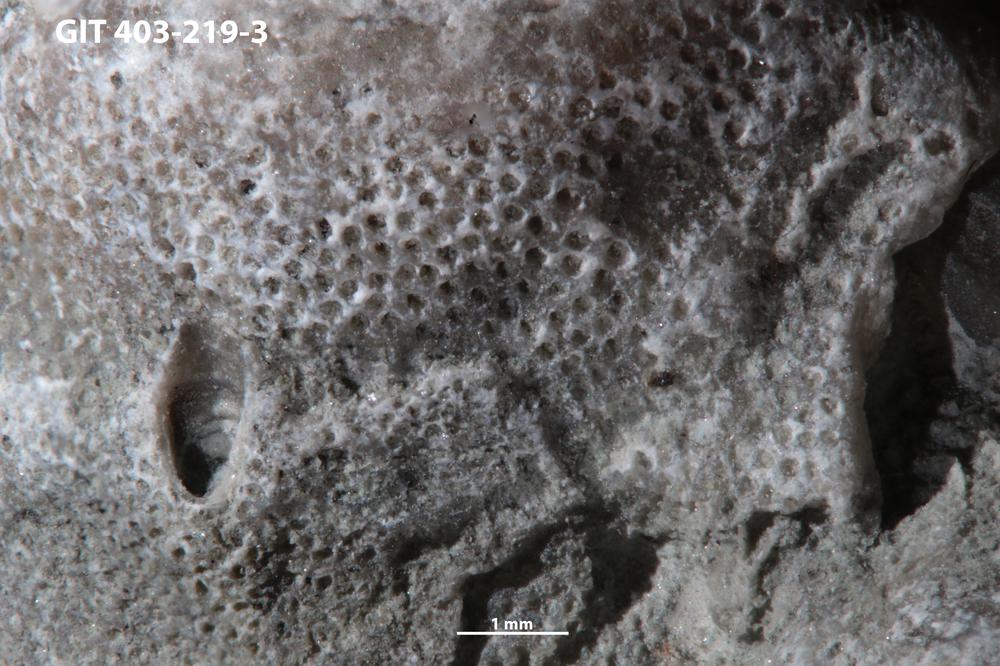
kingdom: Animalia
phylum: Bryozoa
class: Stenolaemata
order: Cystoporida
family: Fistuliporidae
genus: Fistulipora
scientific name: Fistulipora przhidolensis
